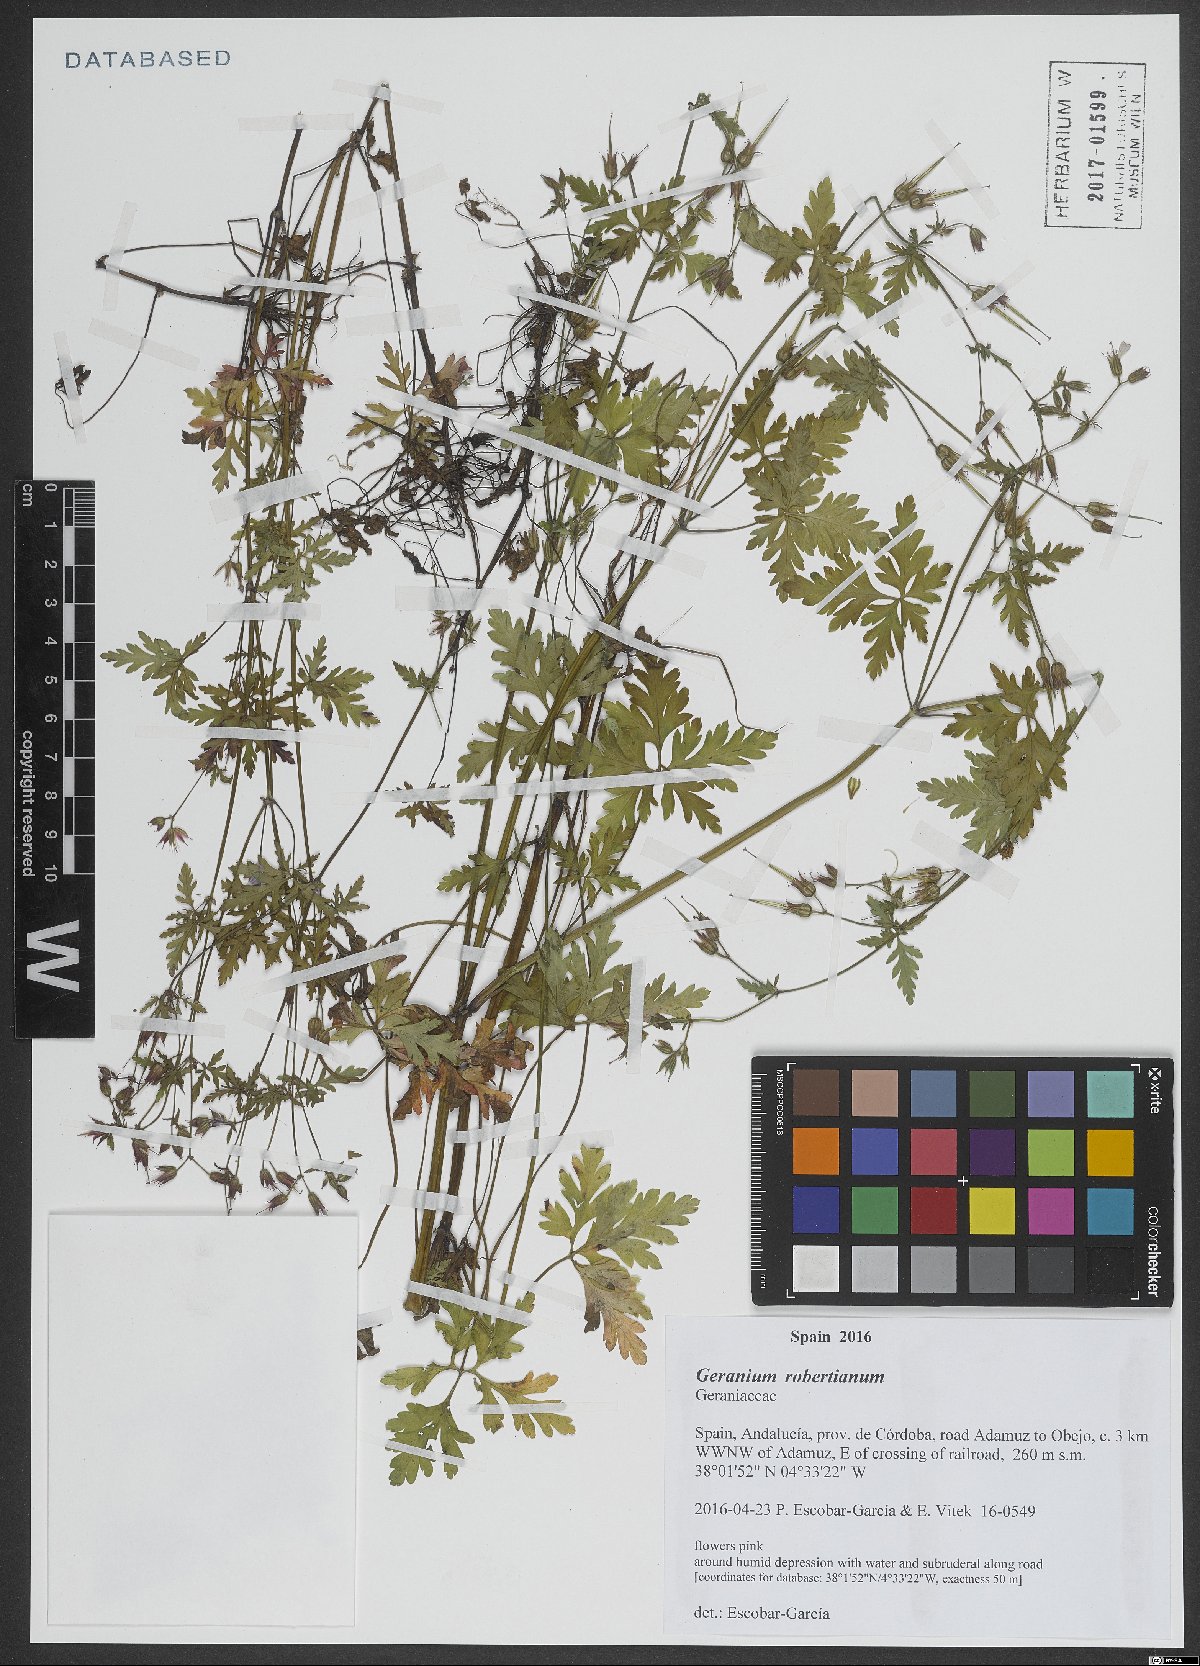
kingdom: Plantae
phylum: Tracheophyta
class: Magnoliopsida
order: Geraniales
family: Geraniaceae
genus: Geranium
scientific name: Geranium robertianum
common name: Herb-robert
